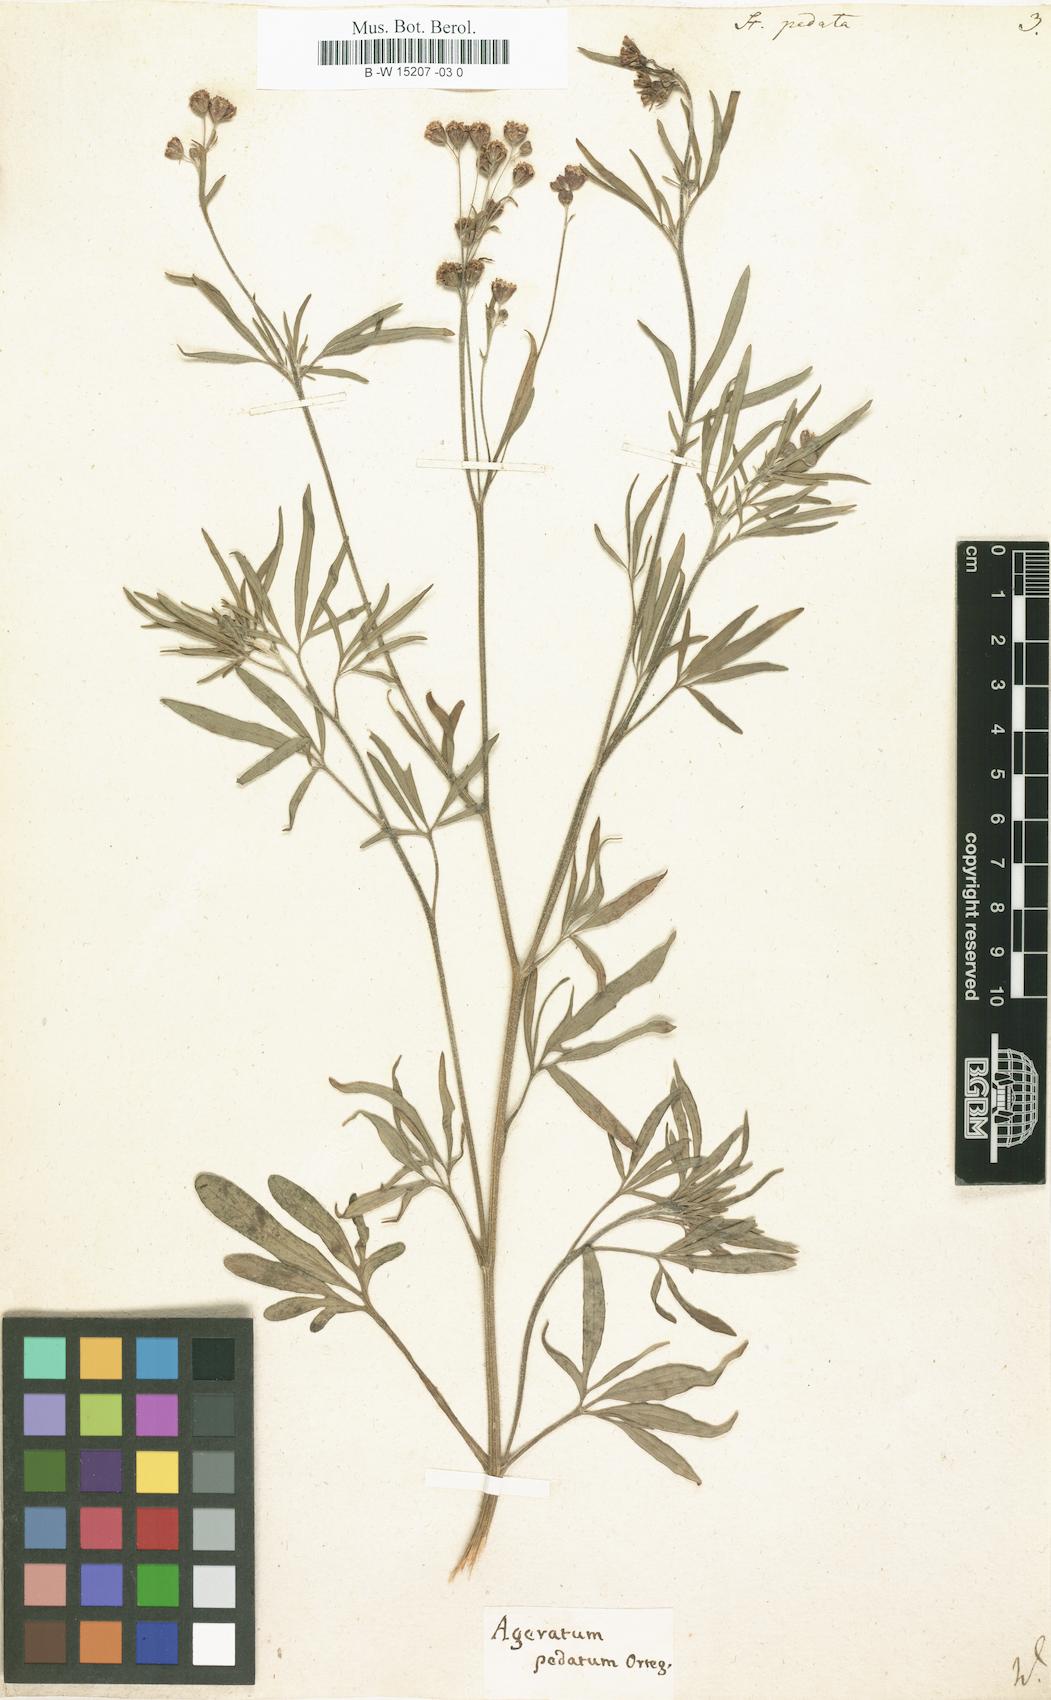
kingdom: Plantae
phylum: Tracheophyta
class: Magnoliopsida
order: Asterales
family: Asteraceae
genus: Florestina
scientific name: Florestina pedata
